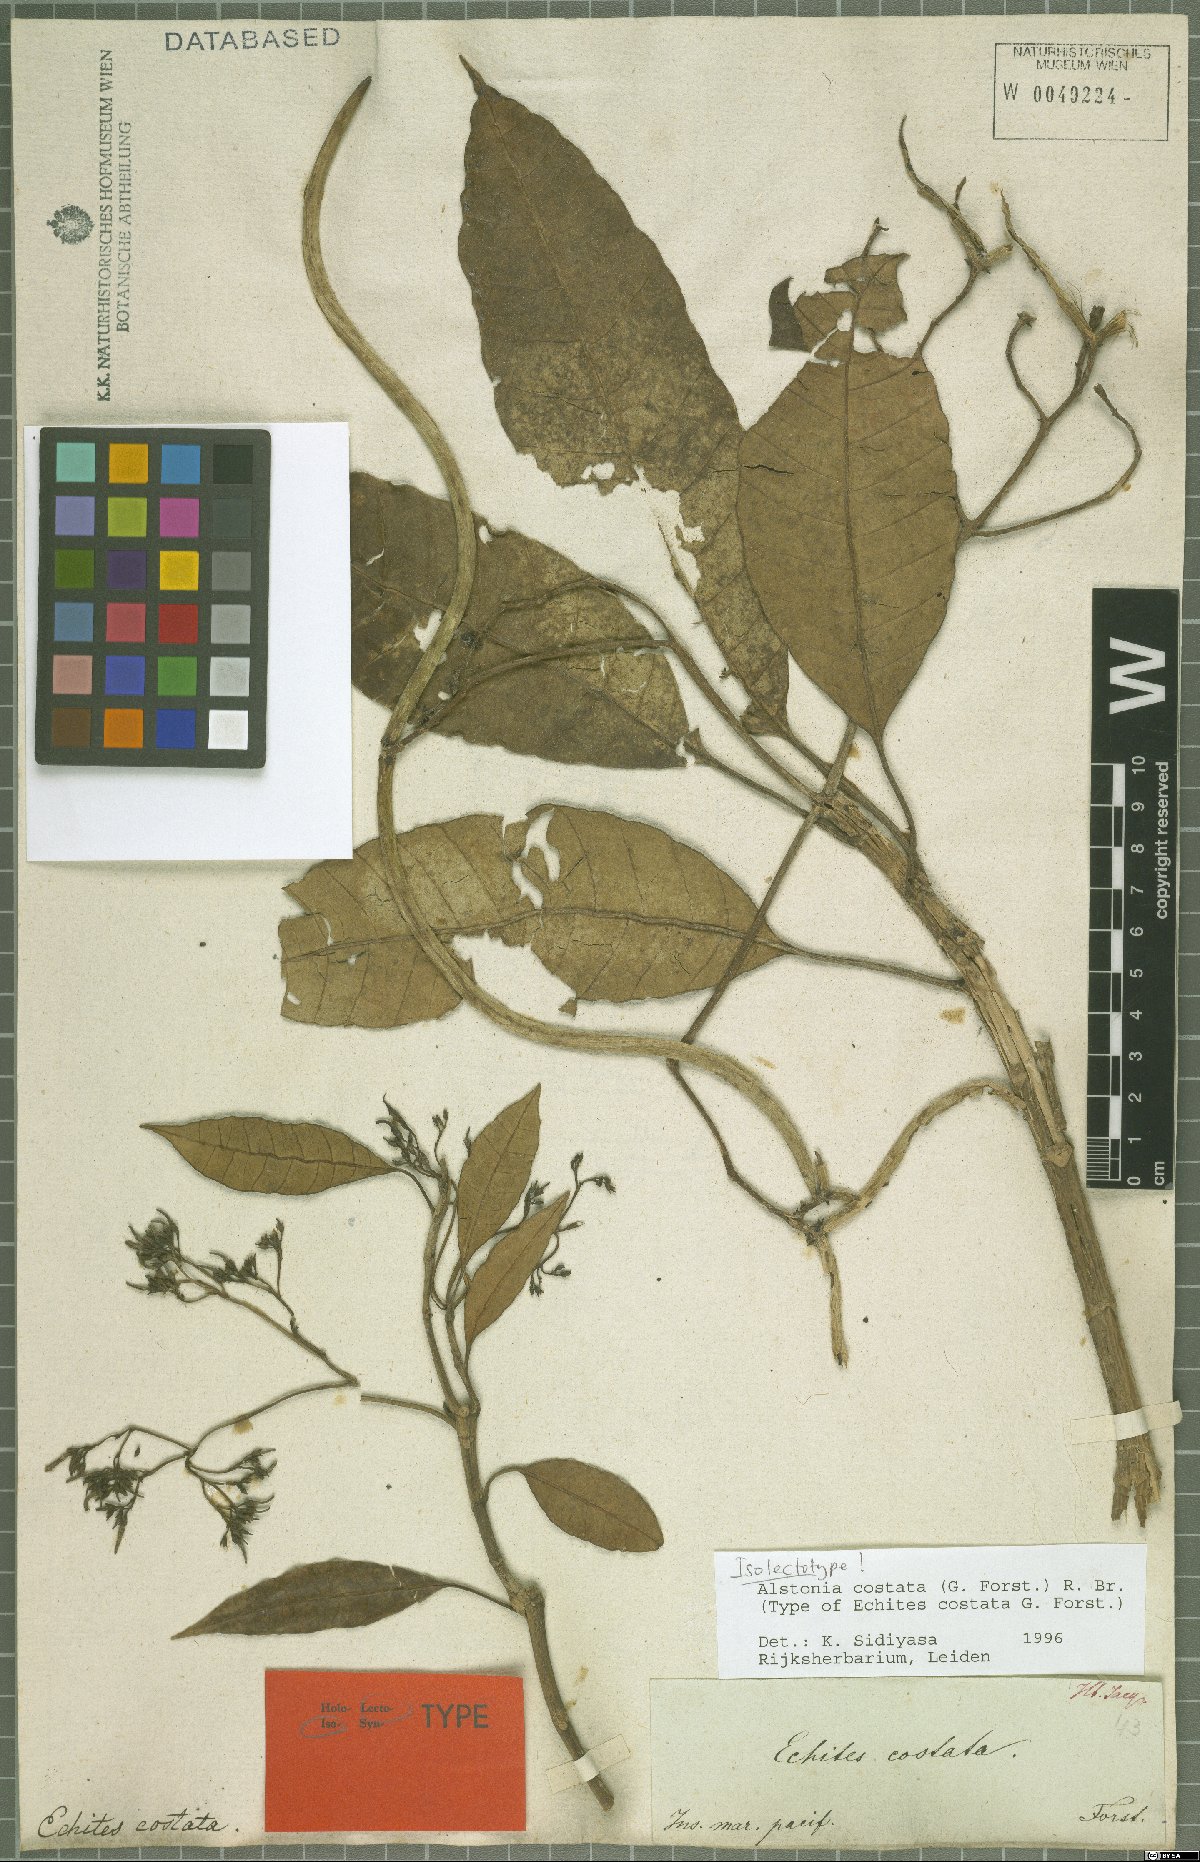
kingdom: Plantae
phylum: Tracheophyta
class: Magnoliopsida
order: Gentianales
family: Apocynaceae
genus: Alstonia
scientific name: Alstonia costata
